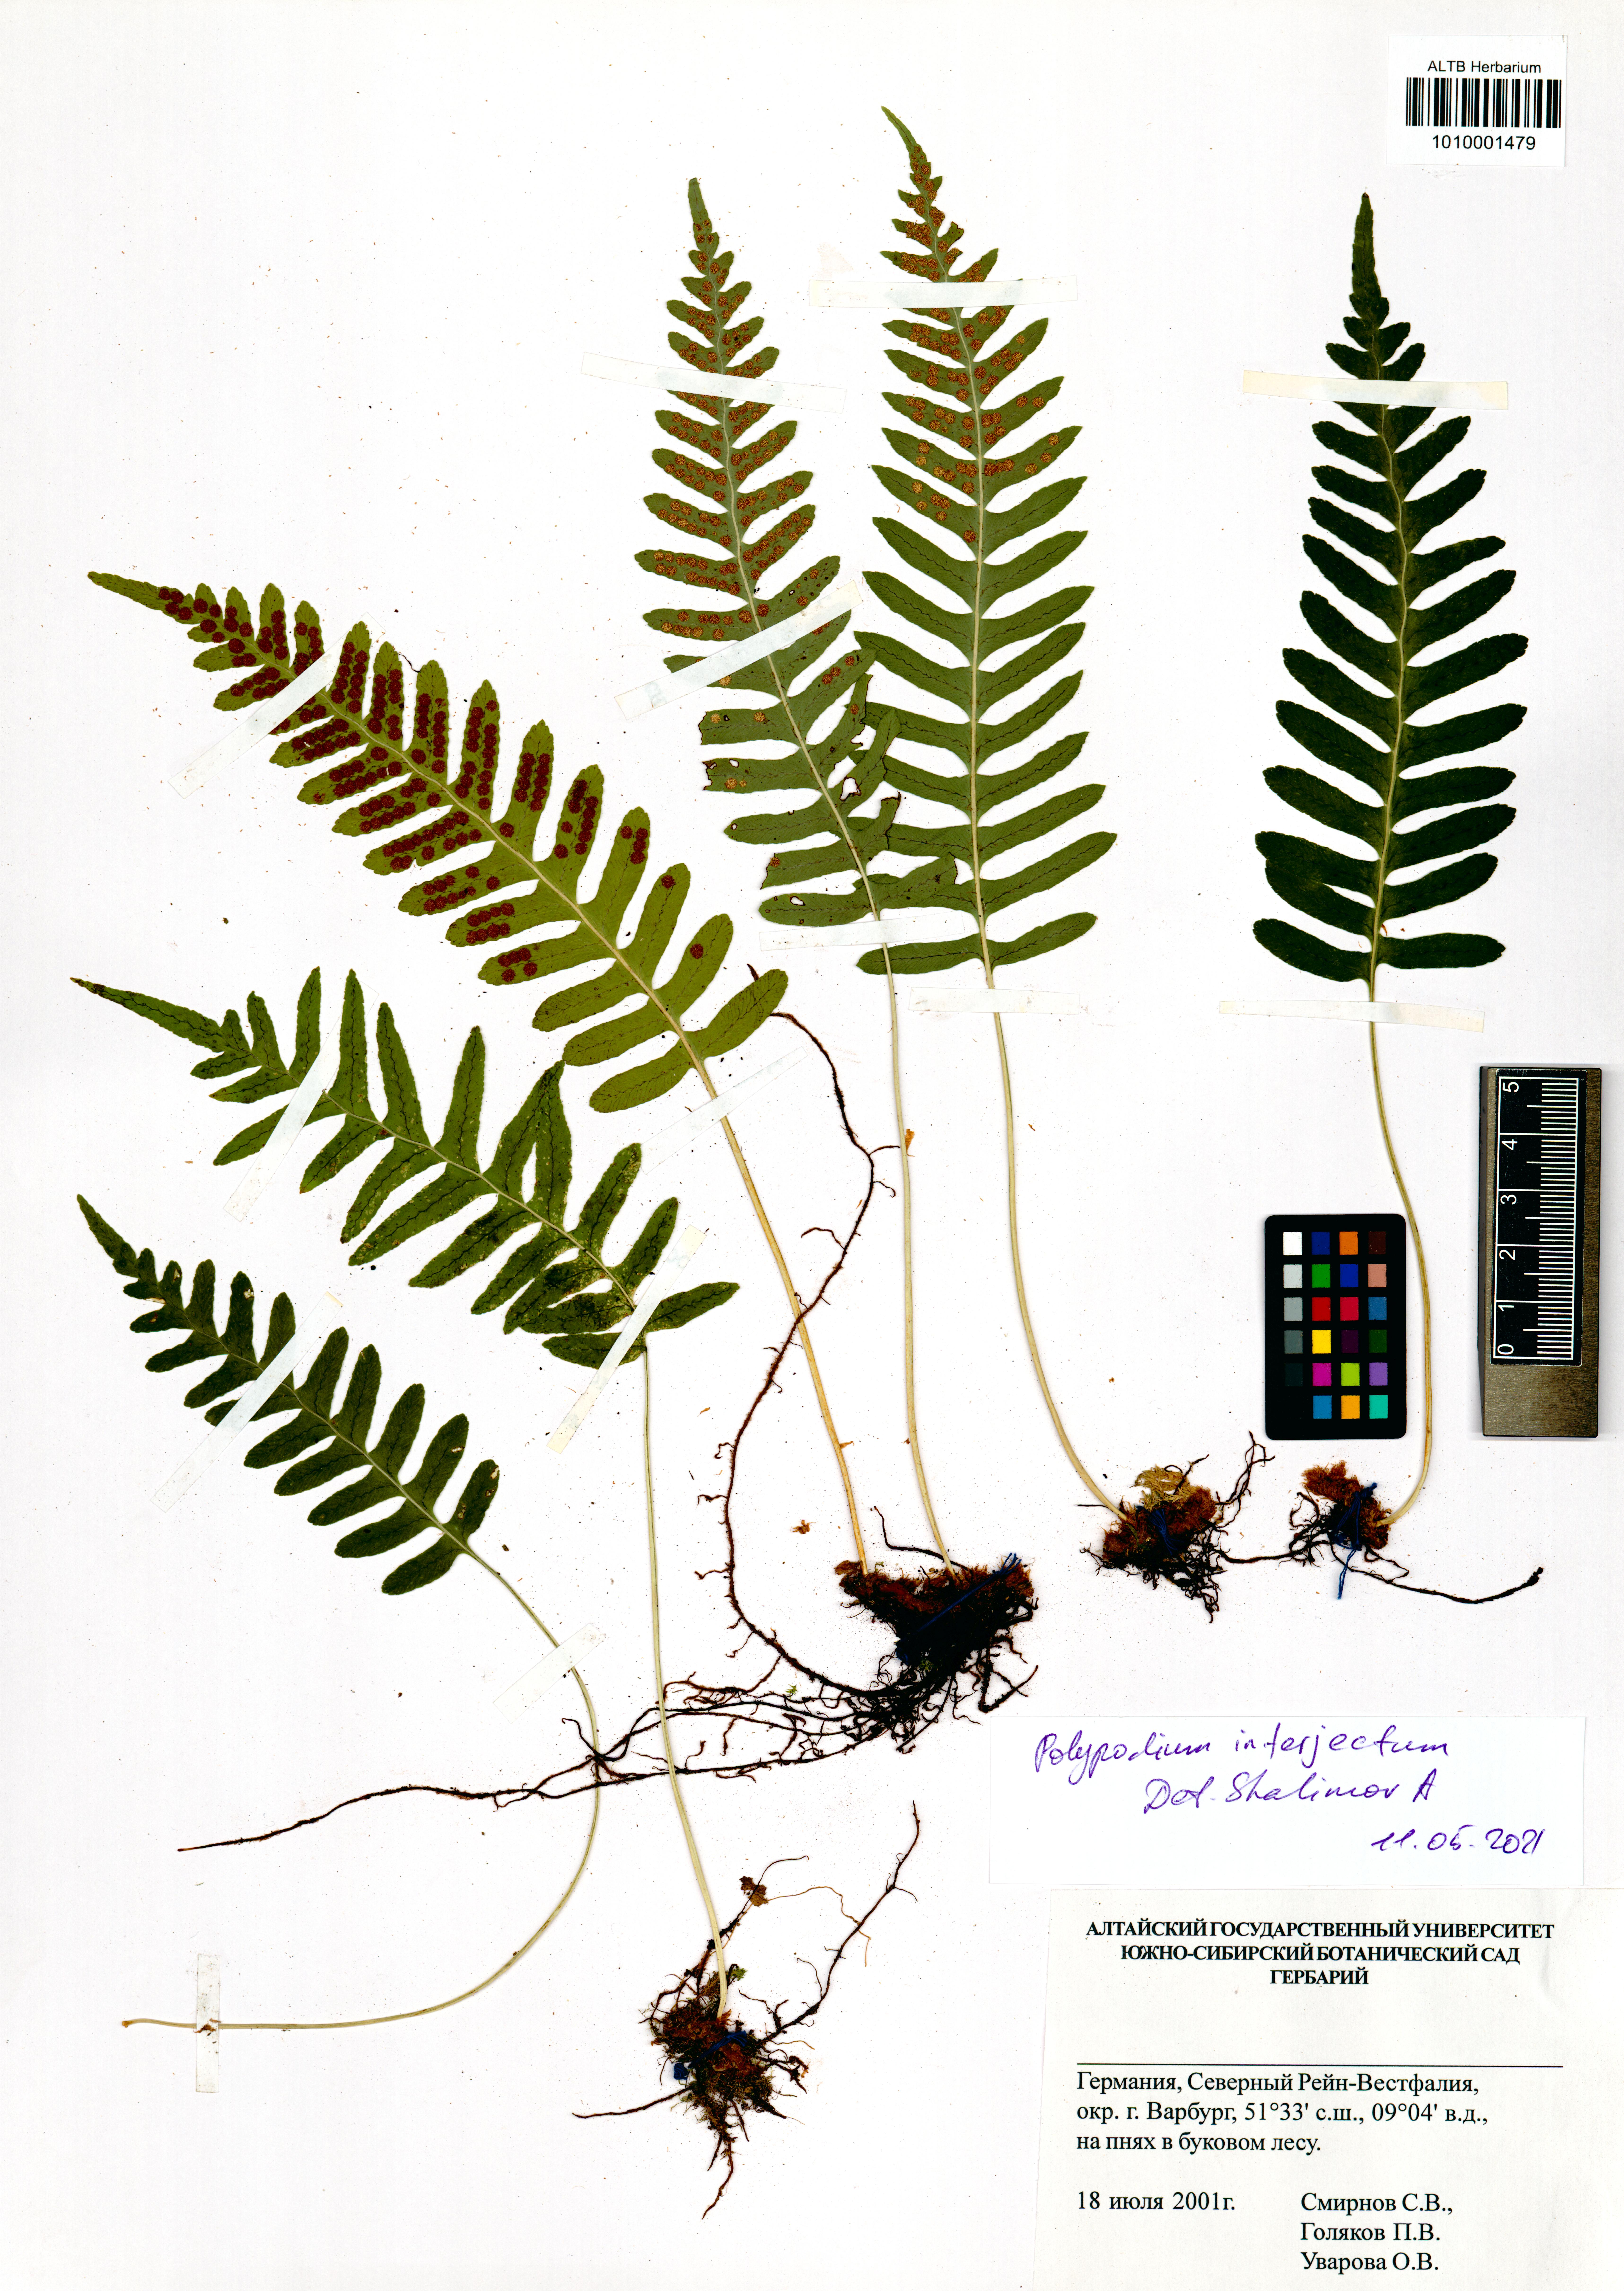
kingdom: Plantae
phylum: Tracheophyta
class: Polypodiopsida
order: Polypodiales
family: Polypodiaceae
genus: Polypodium
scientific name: Polypodium interjectum
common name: Intermediate polypody
